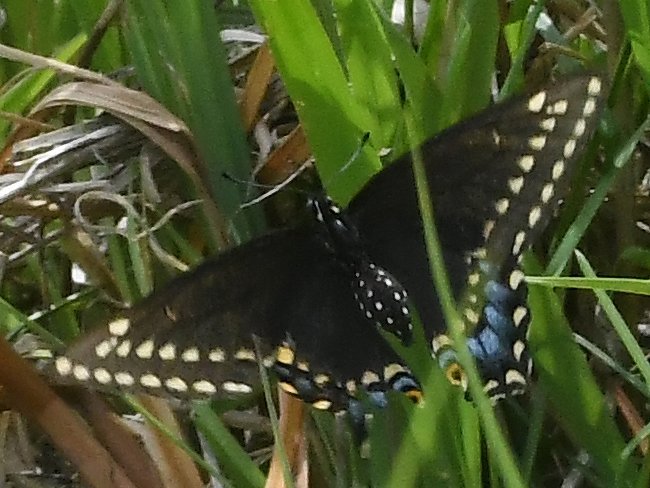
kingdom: Animalia
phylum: Arthropoda
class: Insecta
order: Lepidoptera
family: Papilionidae
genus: Papilio
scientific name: Papilio polyxenes
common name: Black Swallowtail
